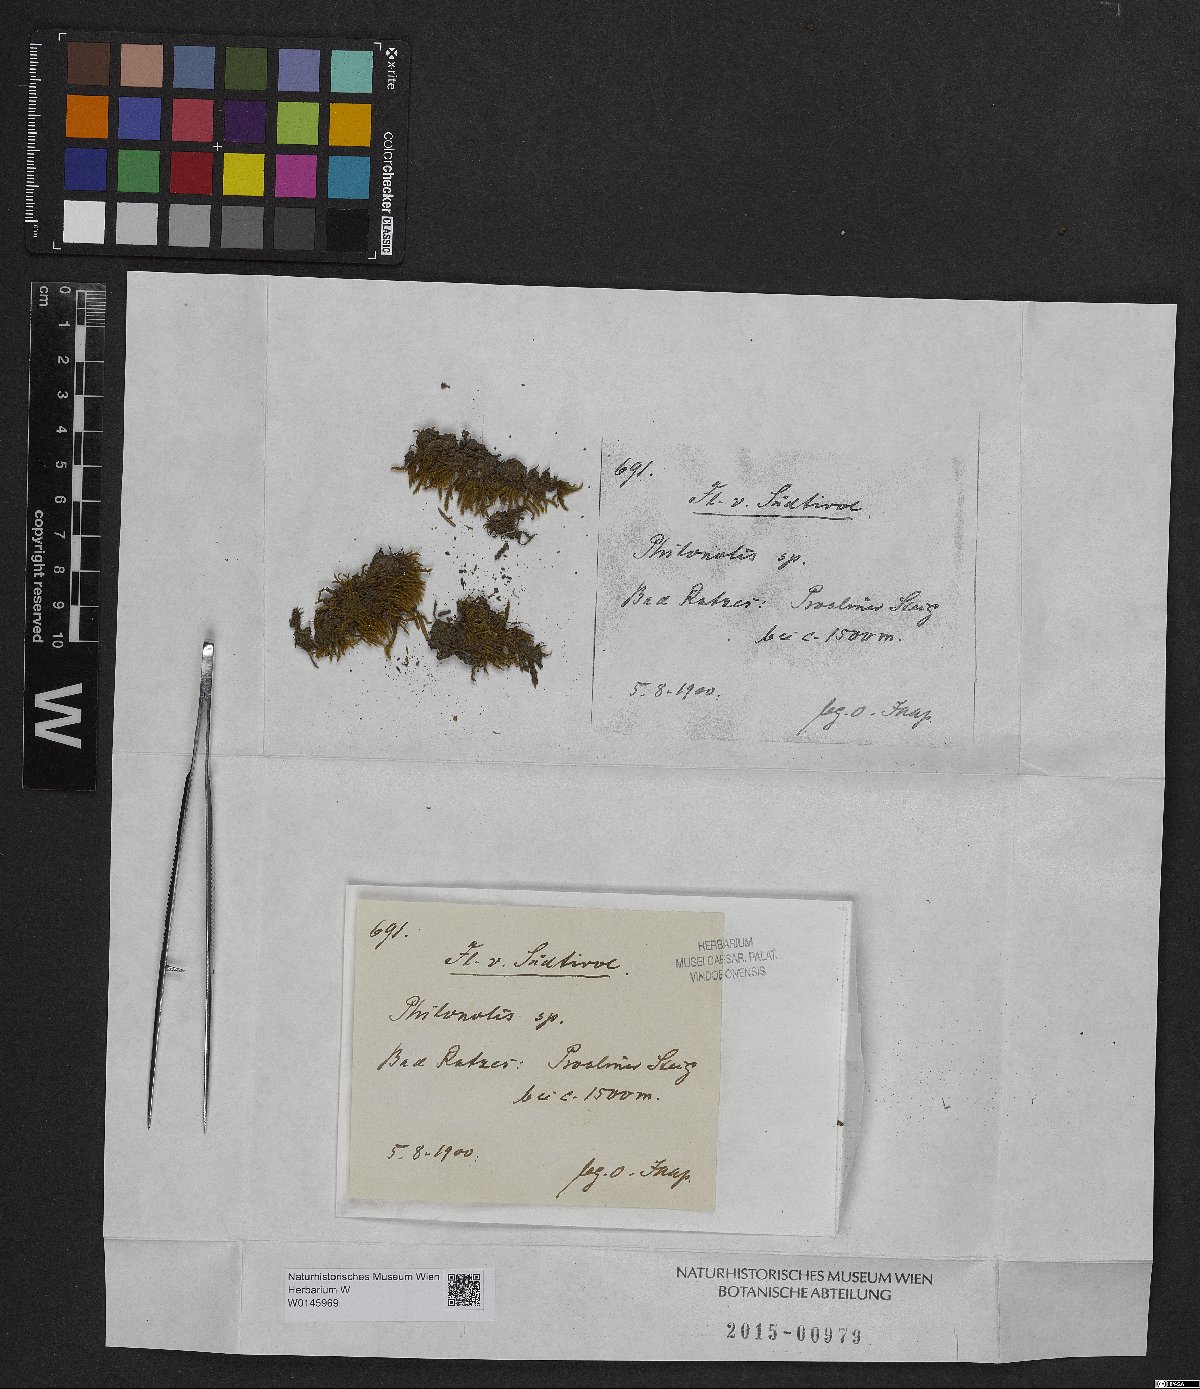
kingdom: Plantae
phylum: Bryophyta
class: Bryopsida
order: Bartramiales
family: Bartramiaceae
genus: Philonotis
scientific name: Philonotis
